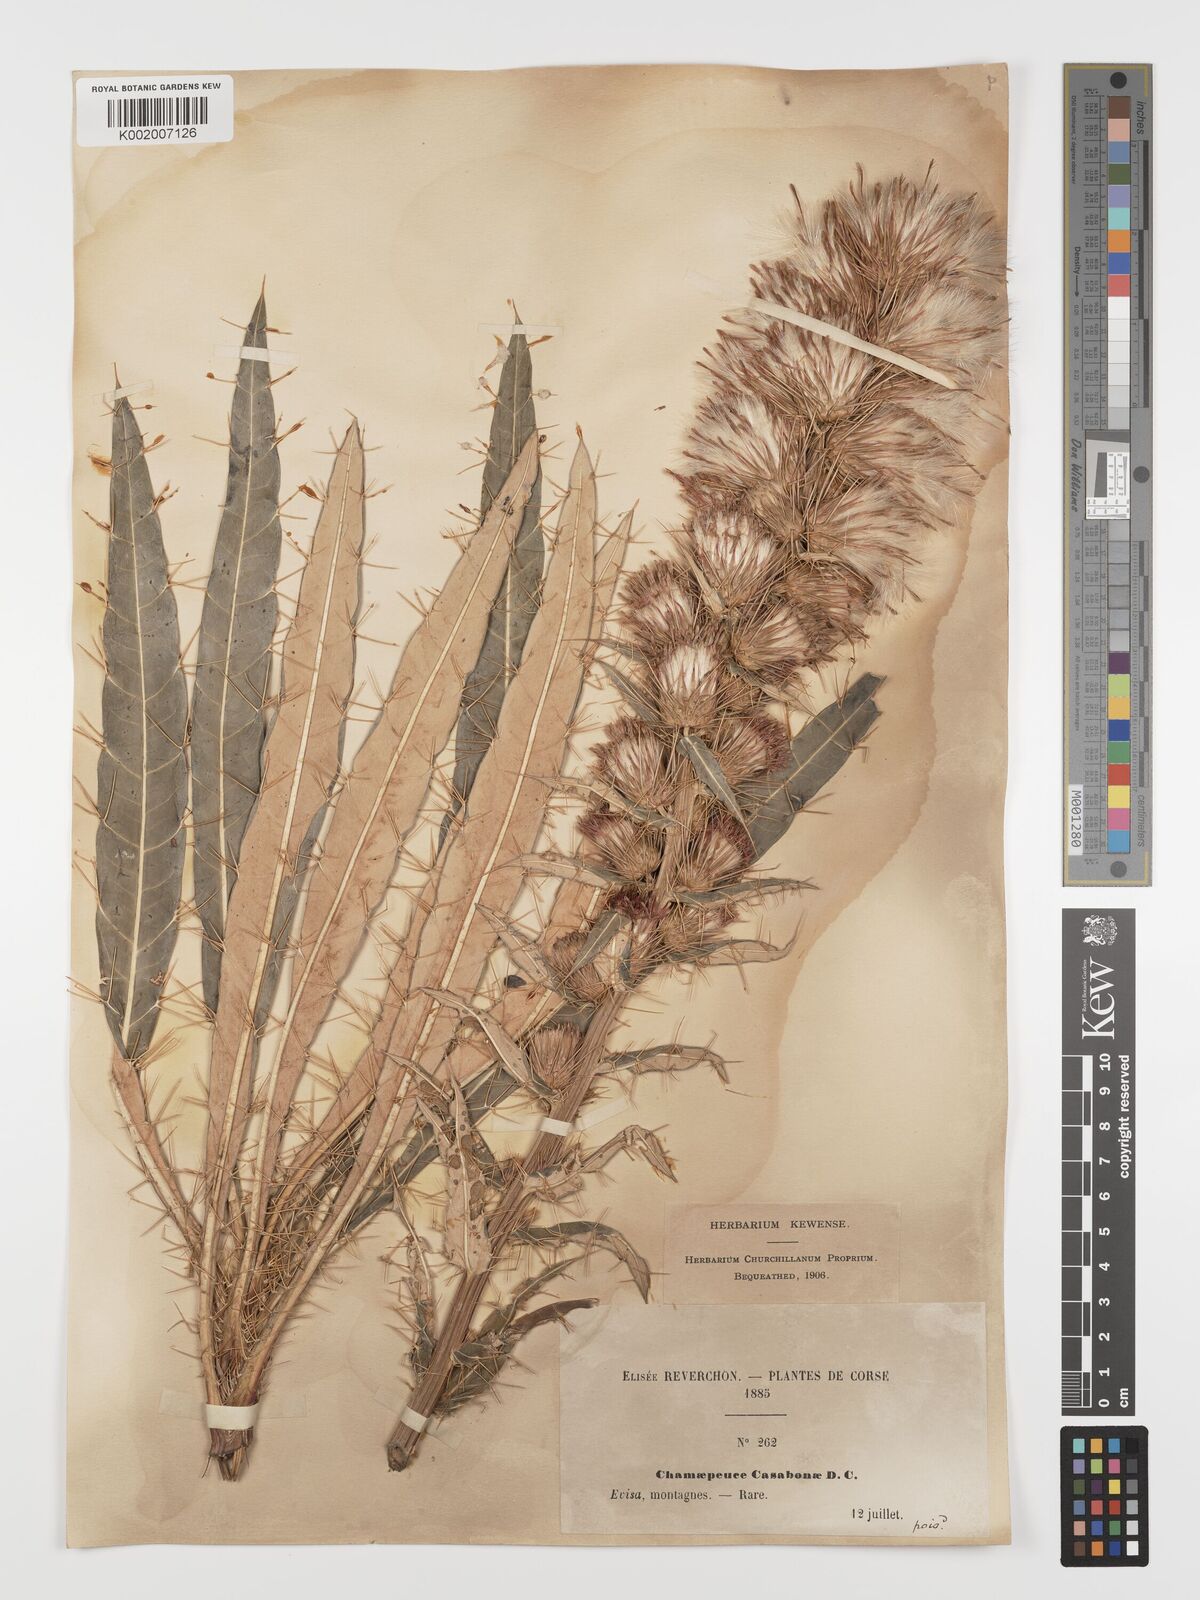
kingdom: Plantae
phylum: Tracheophyta
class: Magnoliopsida
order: Asterales
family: Asteraceae
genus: Ptilostemon
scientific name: Ptilostemon casabonae
